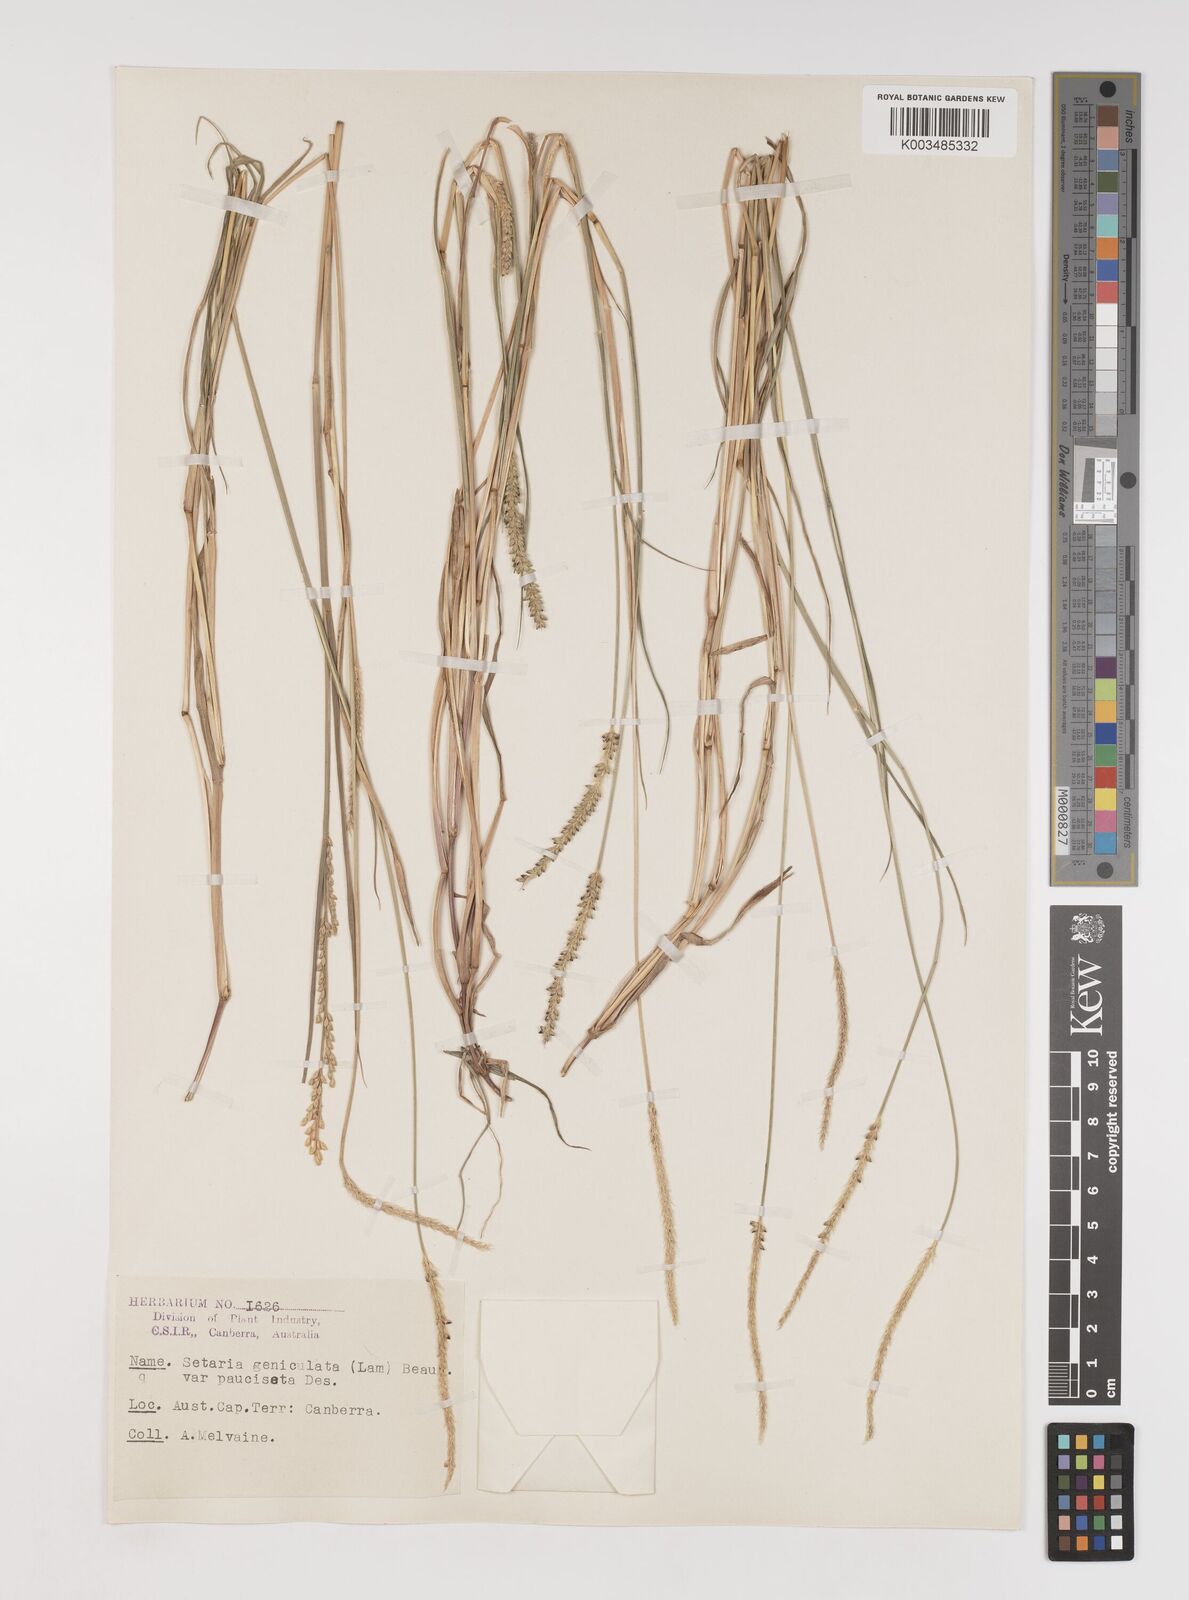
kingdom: Plantae
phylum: Tracheophyta
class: Liliopsida
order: Poales
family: Poaceae
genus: Setaria
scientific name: Setaria parviflora
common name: Knotroot bristle-grass
